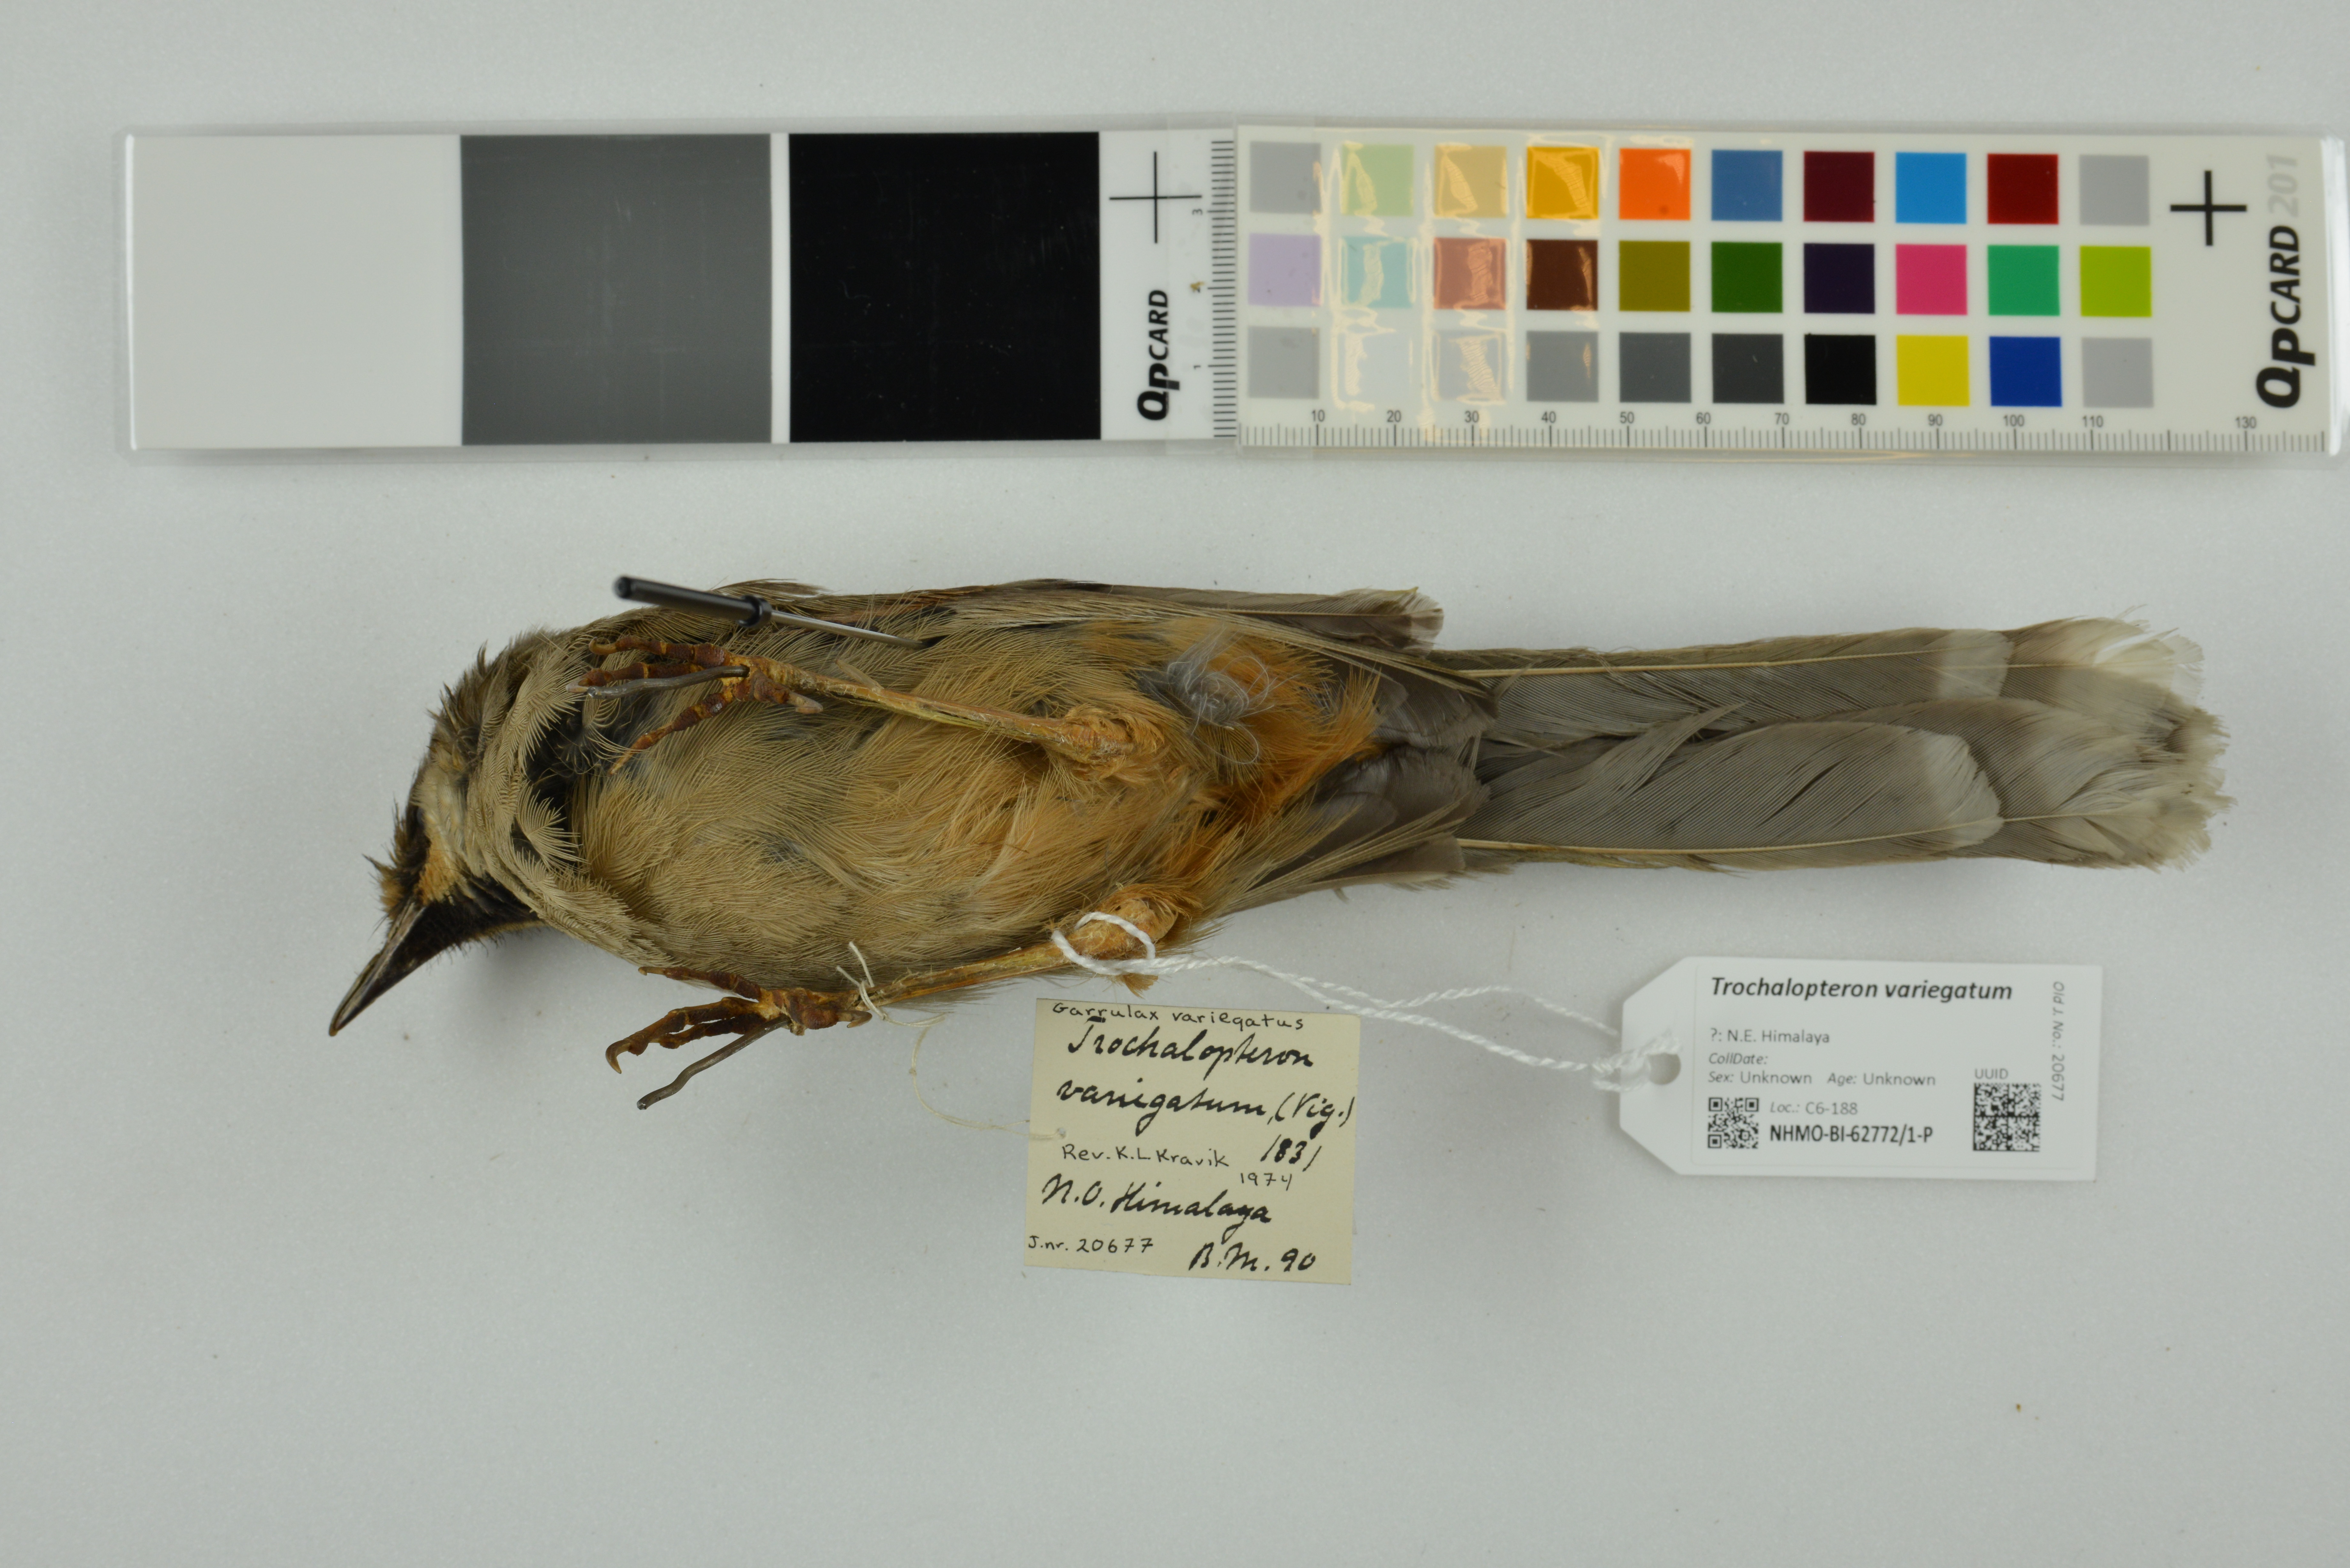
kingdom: Animalia
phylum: Chordata
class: Aves
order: Passeriformes
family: Leiothrichidae
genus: Trochalopteron
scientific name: Trochalopteron variegatum
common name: Variegated laughingthrush
